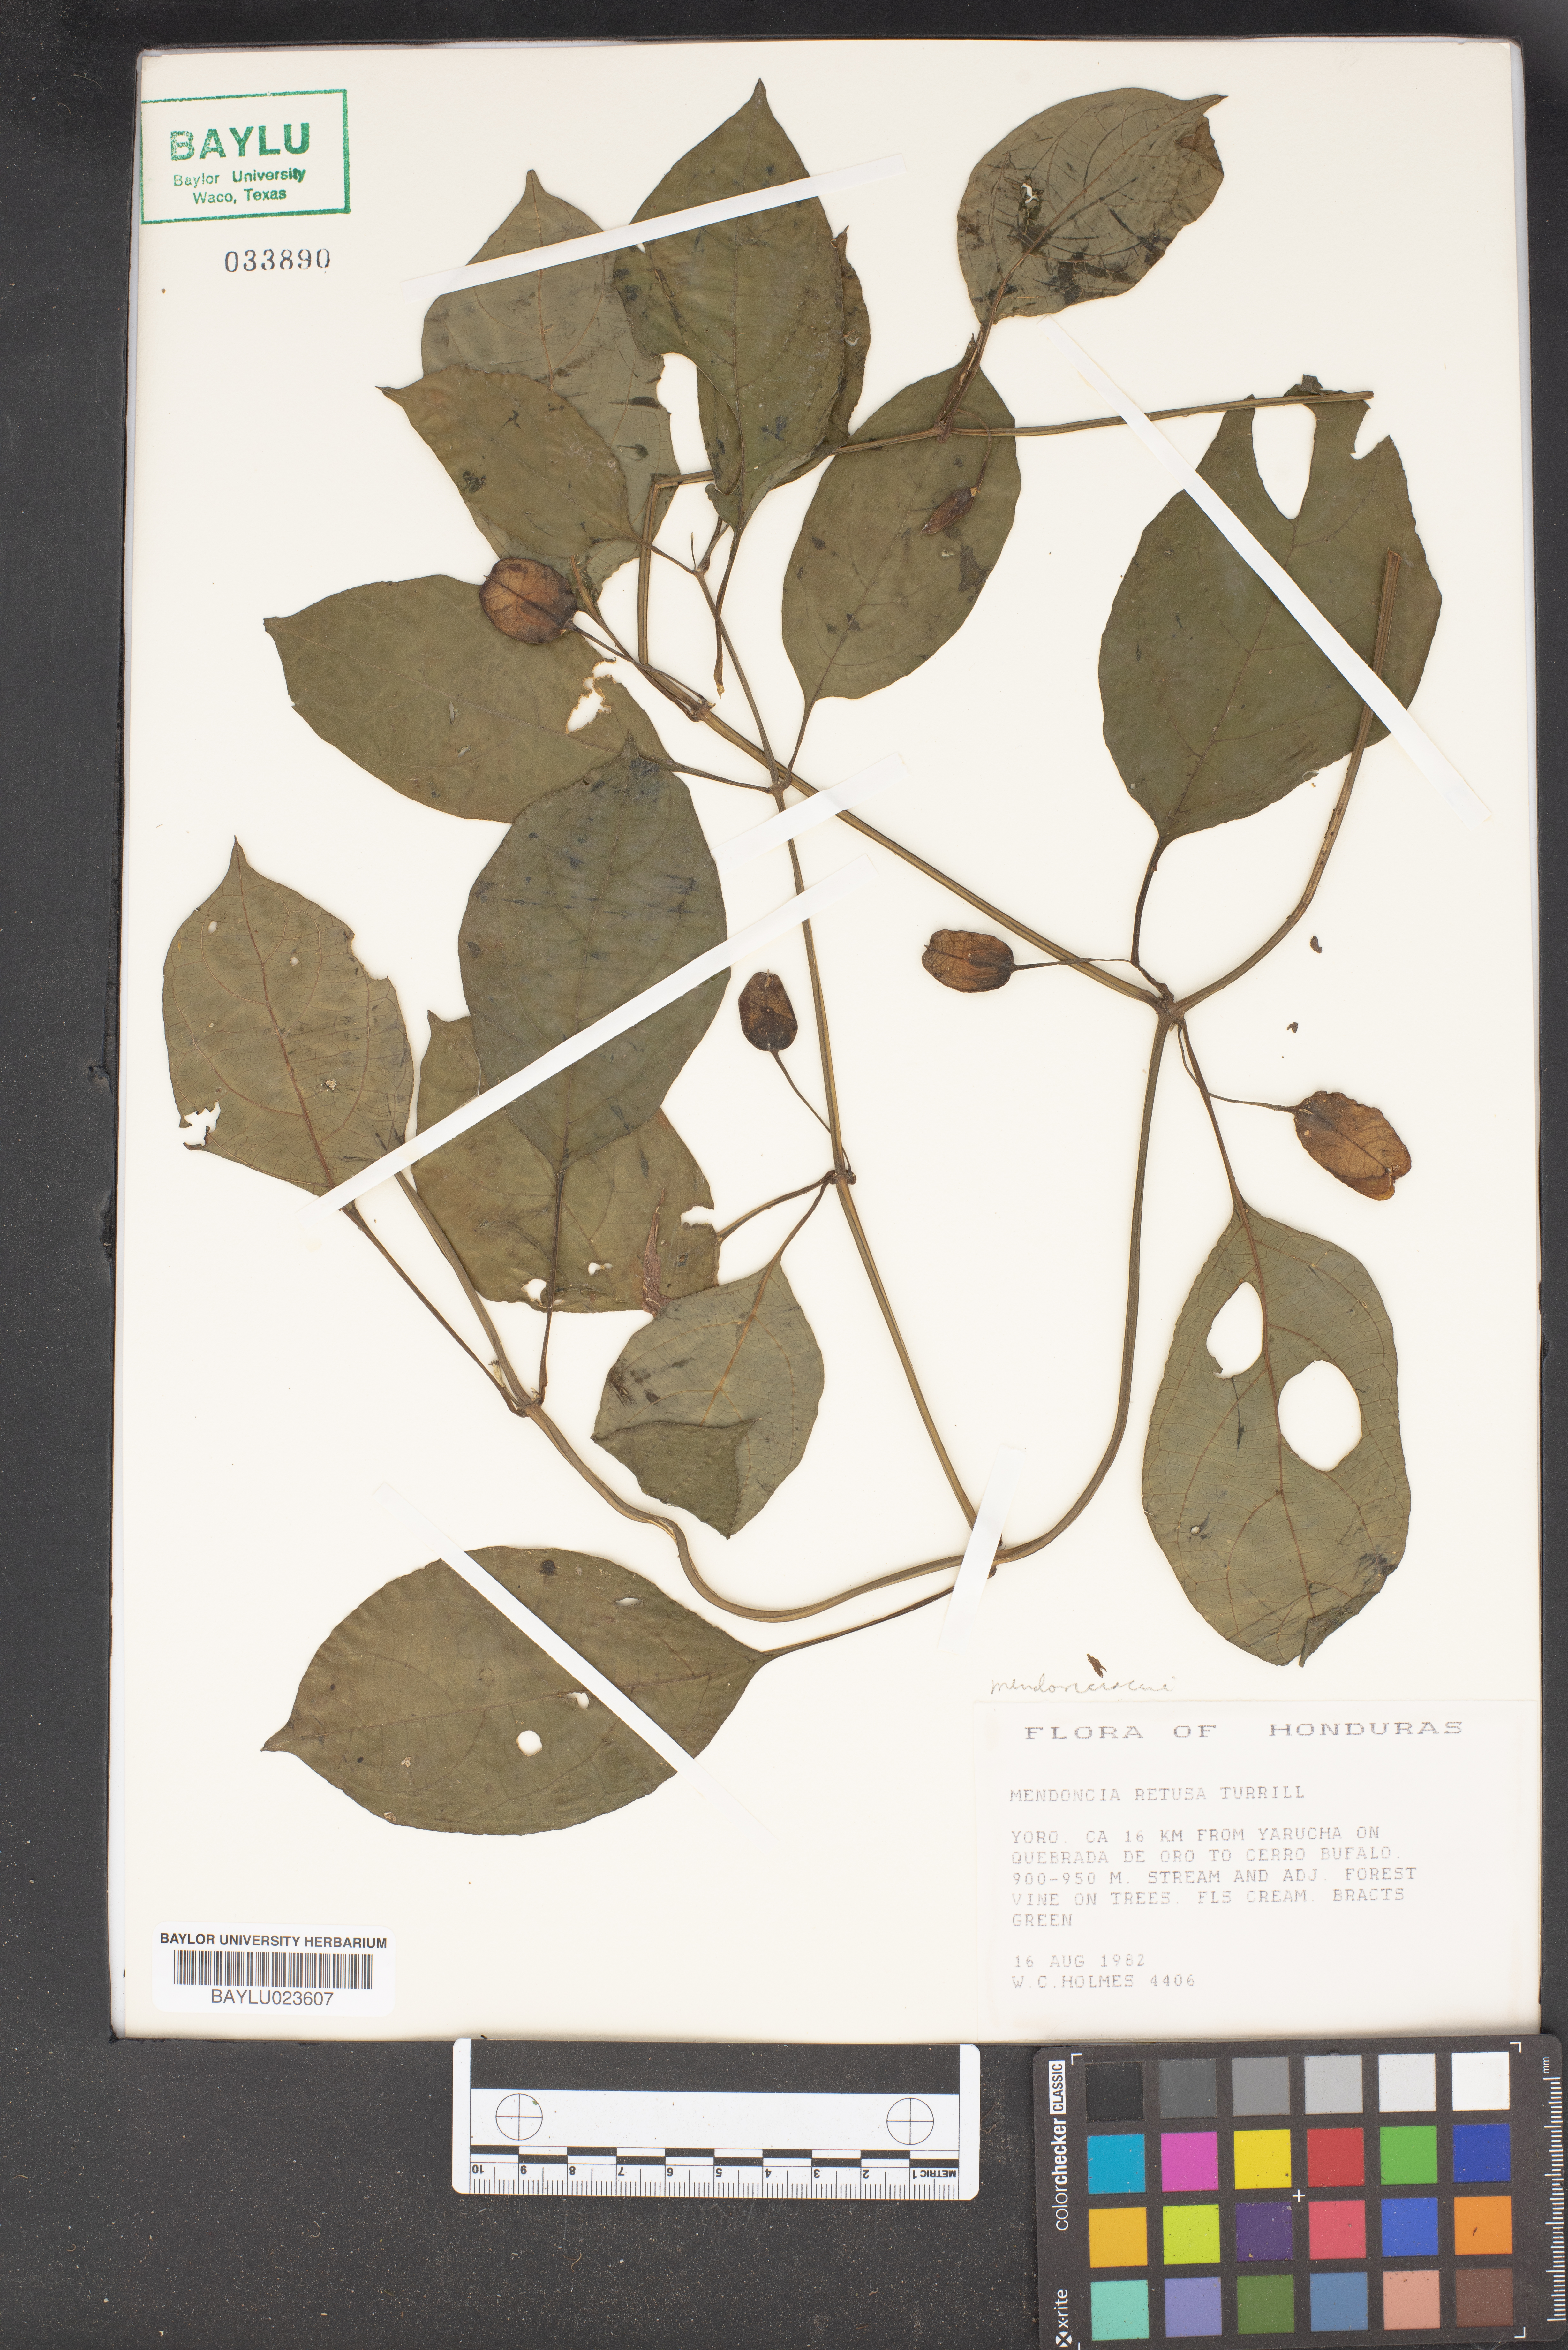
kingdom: Plantae
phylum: Tracheophyta
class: Magnoliopsida
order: Lamiales
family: Acanthaceae
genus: Mendoncia
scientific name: Mendoncia retusa
